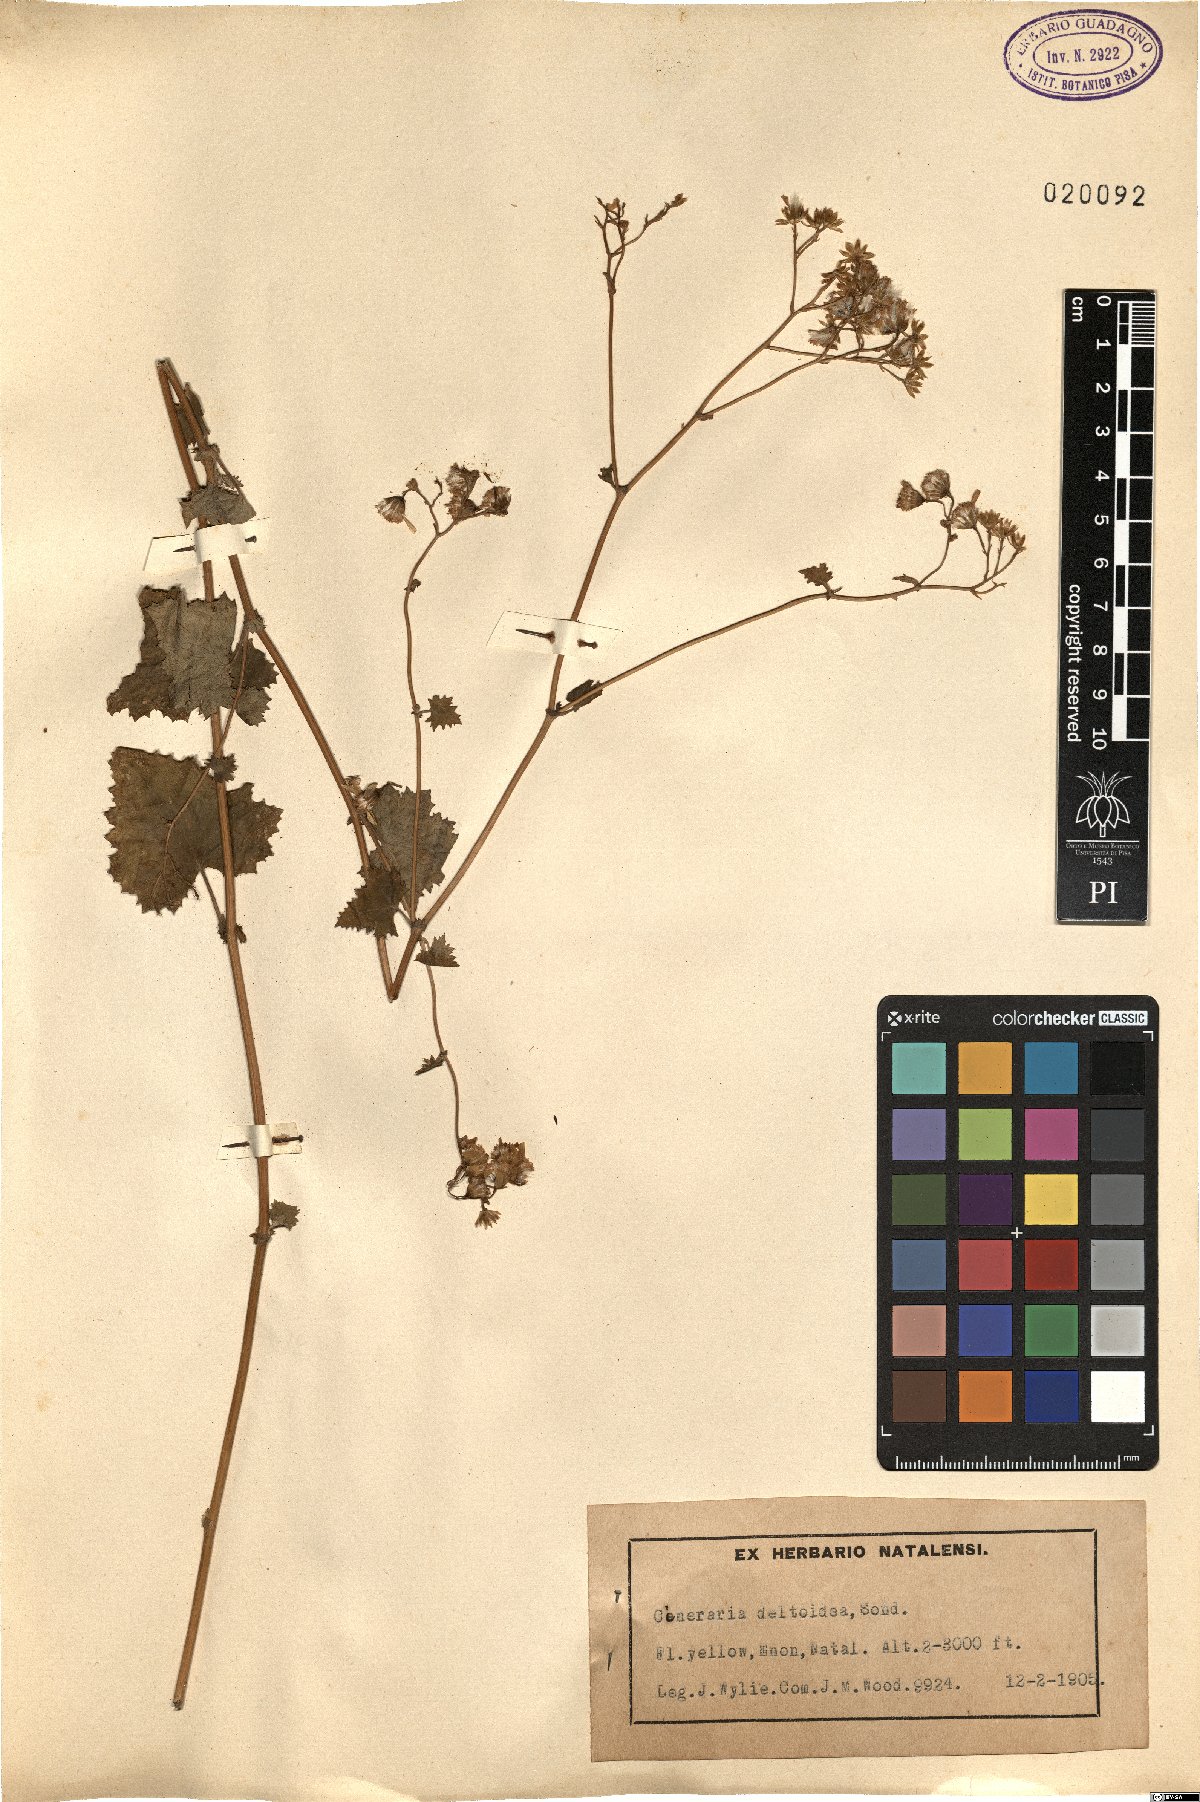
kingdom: Plantae
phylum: Tracheophyta
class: Magnoliopsida
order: Asterales
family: Asteraceae
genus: Cineraria
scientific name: Cineraria deltoidea
